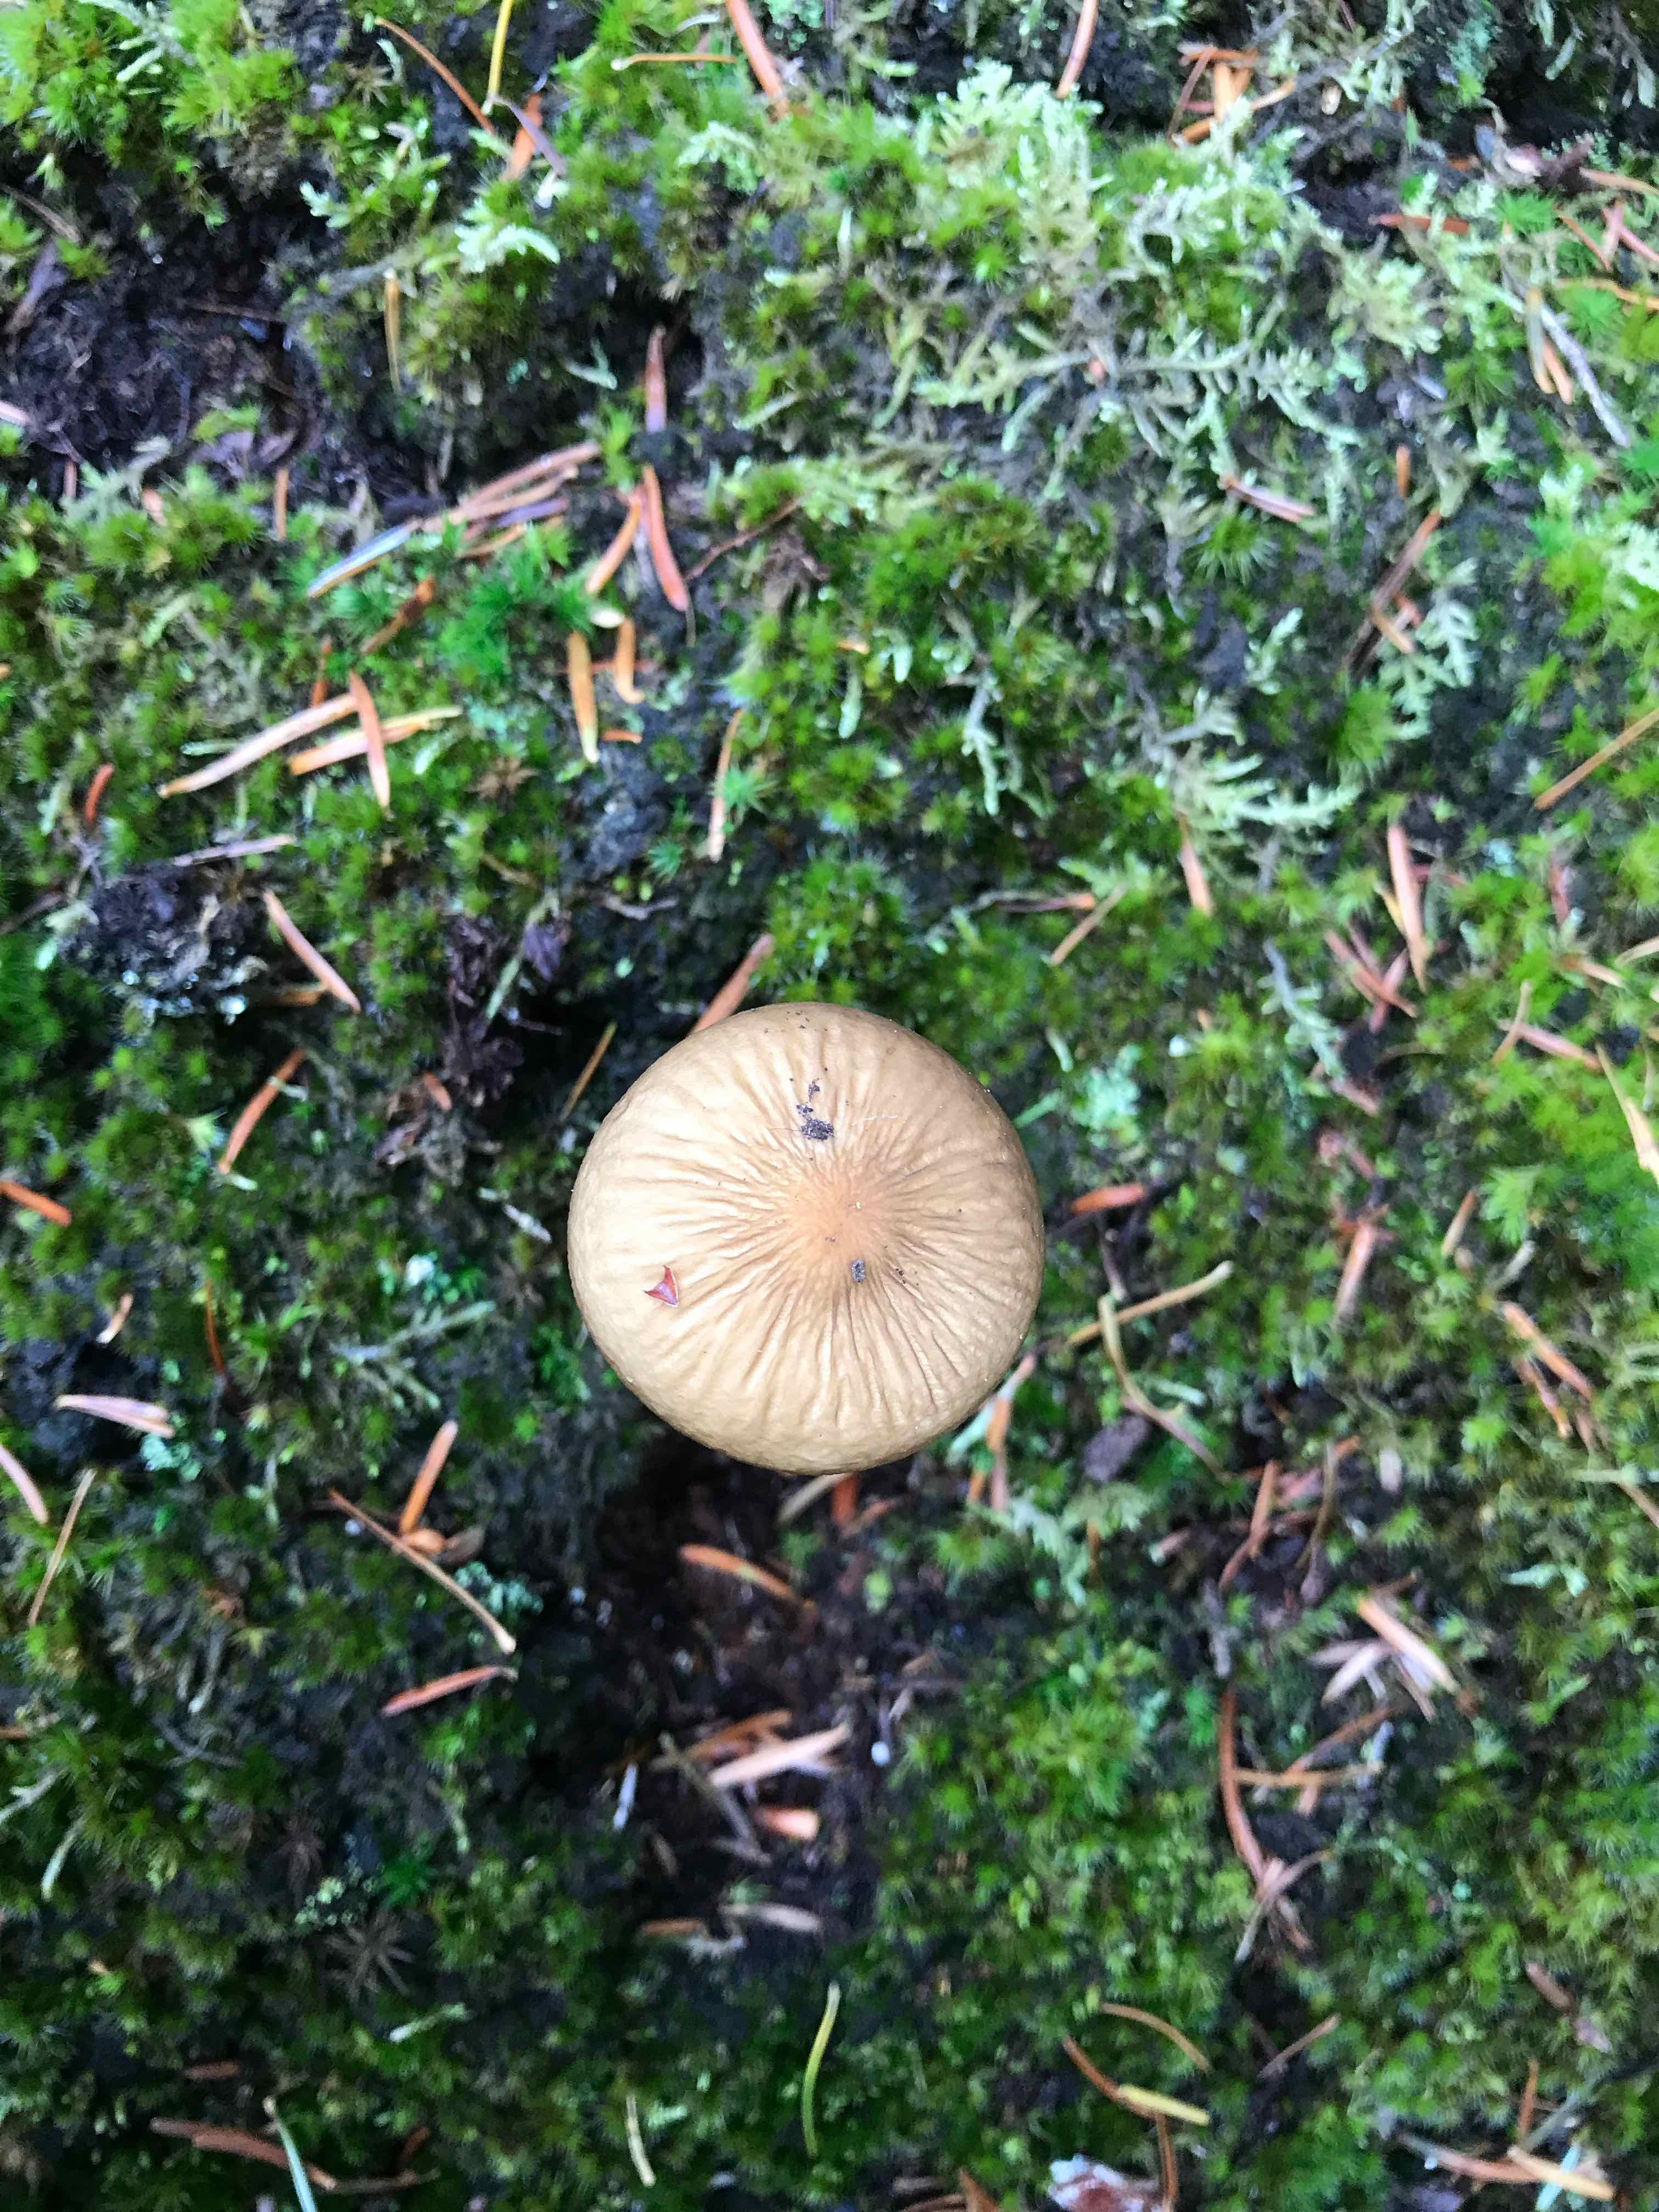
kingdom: Fungi
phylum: Basidiomycota
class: Agaricomycetes
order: Agaricales
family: Physalacriaceae
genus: Hymenopellis
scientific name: Hymenopellis radicata
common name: almindelig pælerodshat
